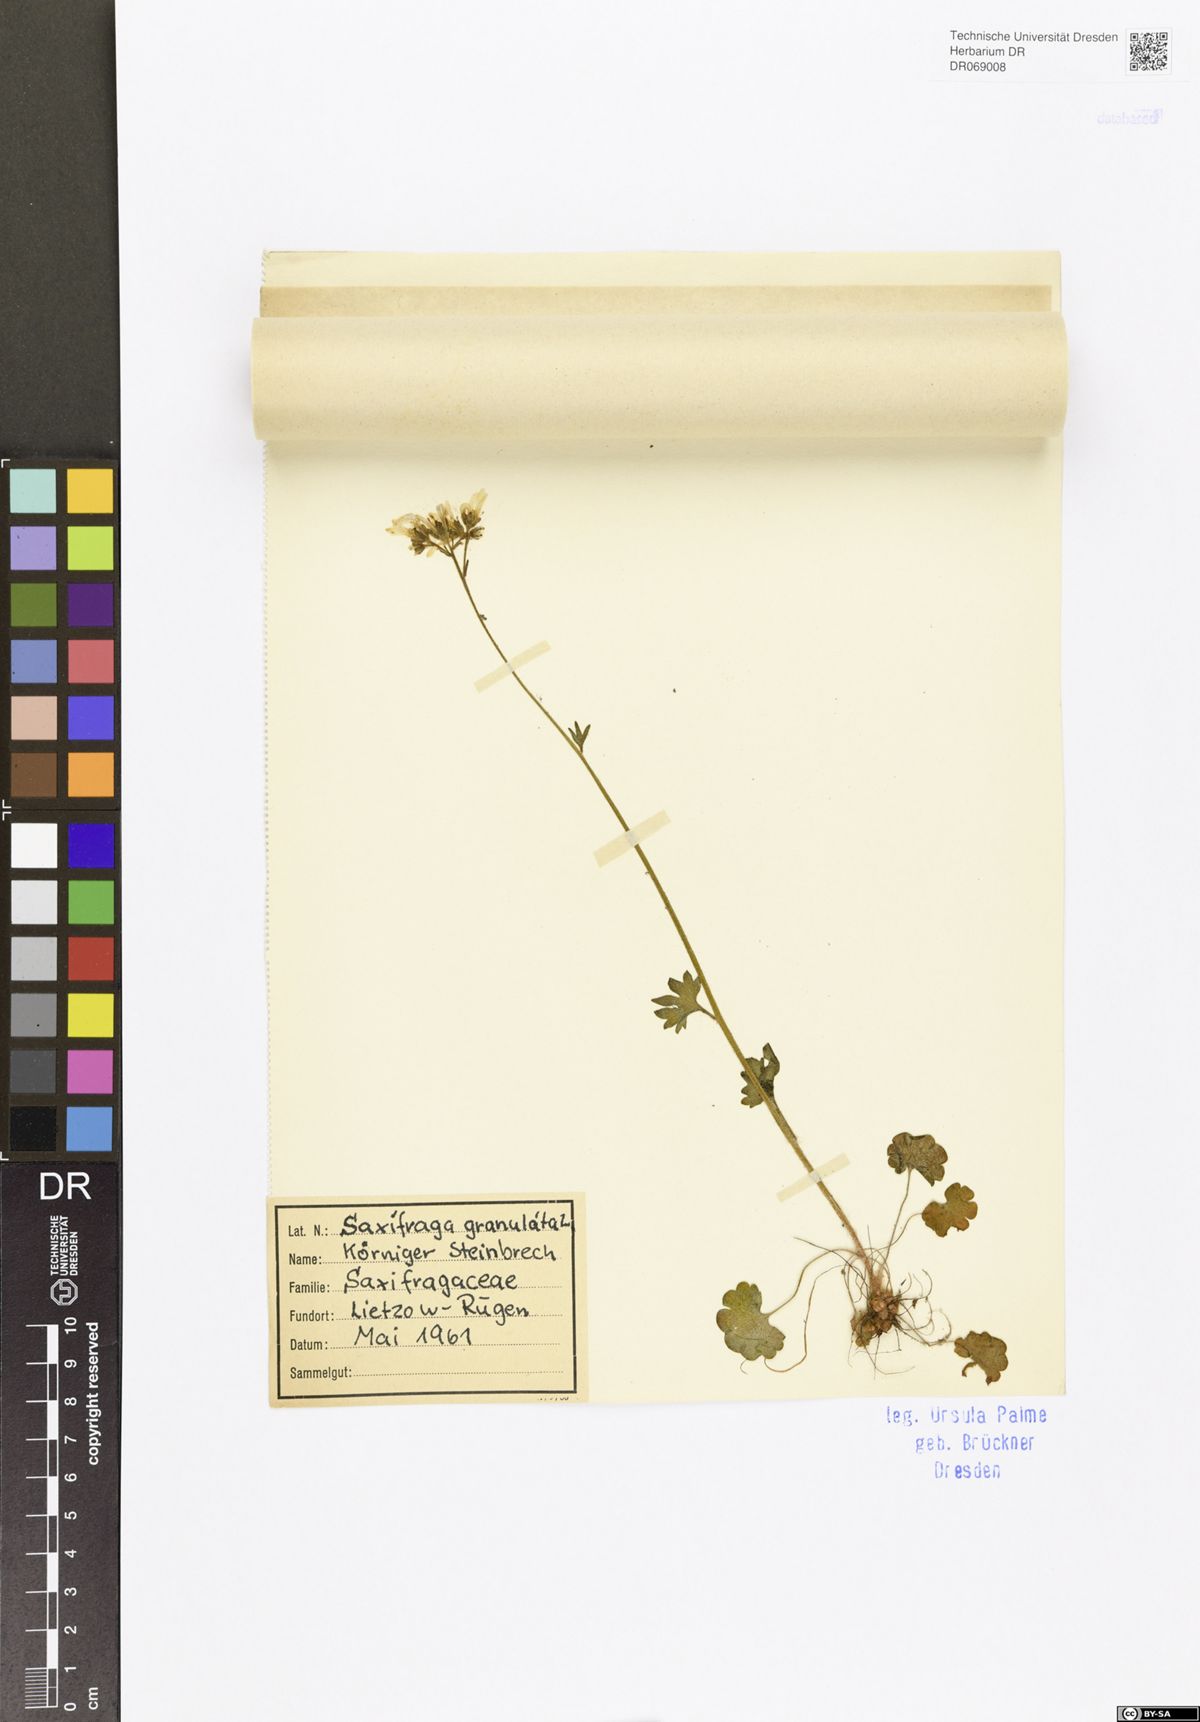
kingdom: Plantae
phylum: Tracheophyta
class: Magnoliopsida
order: Saxifragales
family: Saxifragaceae
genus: Saxifraga
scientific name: Saxifraga granulata
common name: Meadow saxifrage
